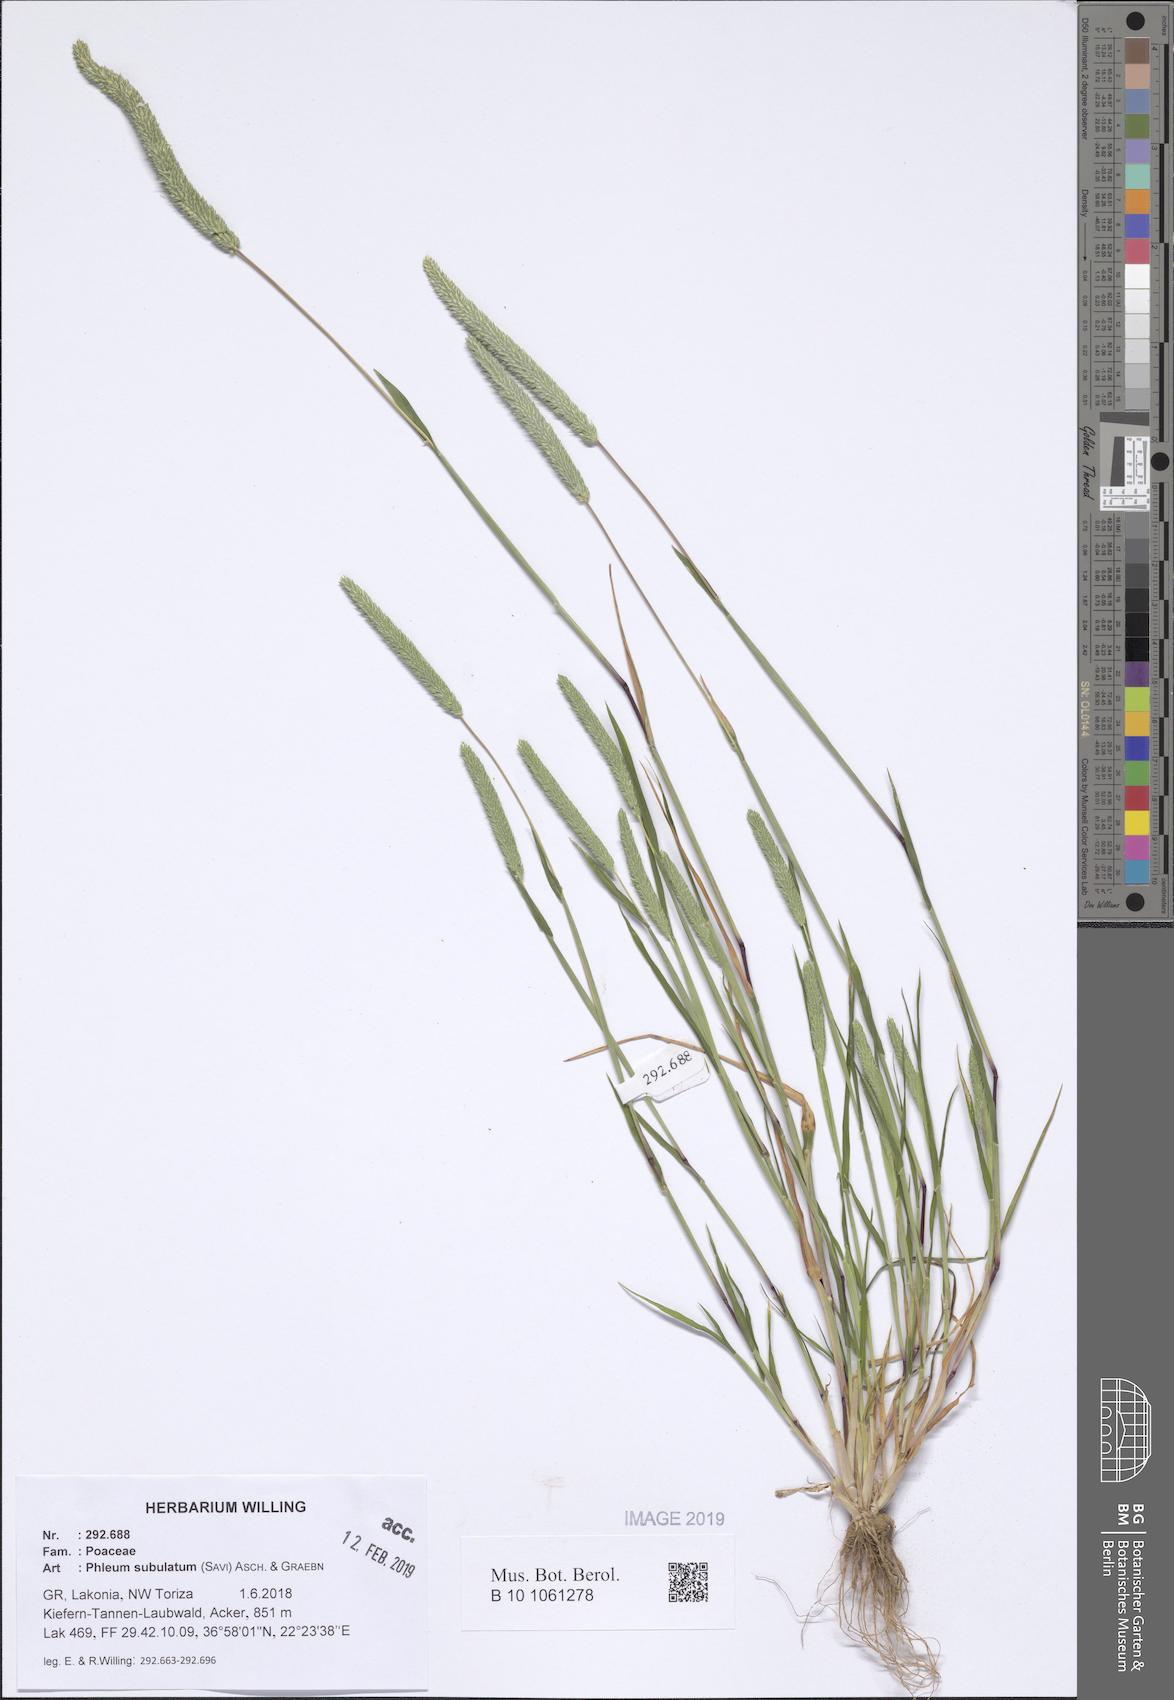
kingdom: Plantae
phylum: Tracheophyta
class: Liliopsida
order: Poales
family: Poaceae
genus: Phleum
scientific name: Phleum subulatum
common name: Italian timothy
